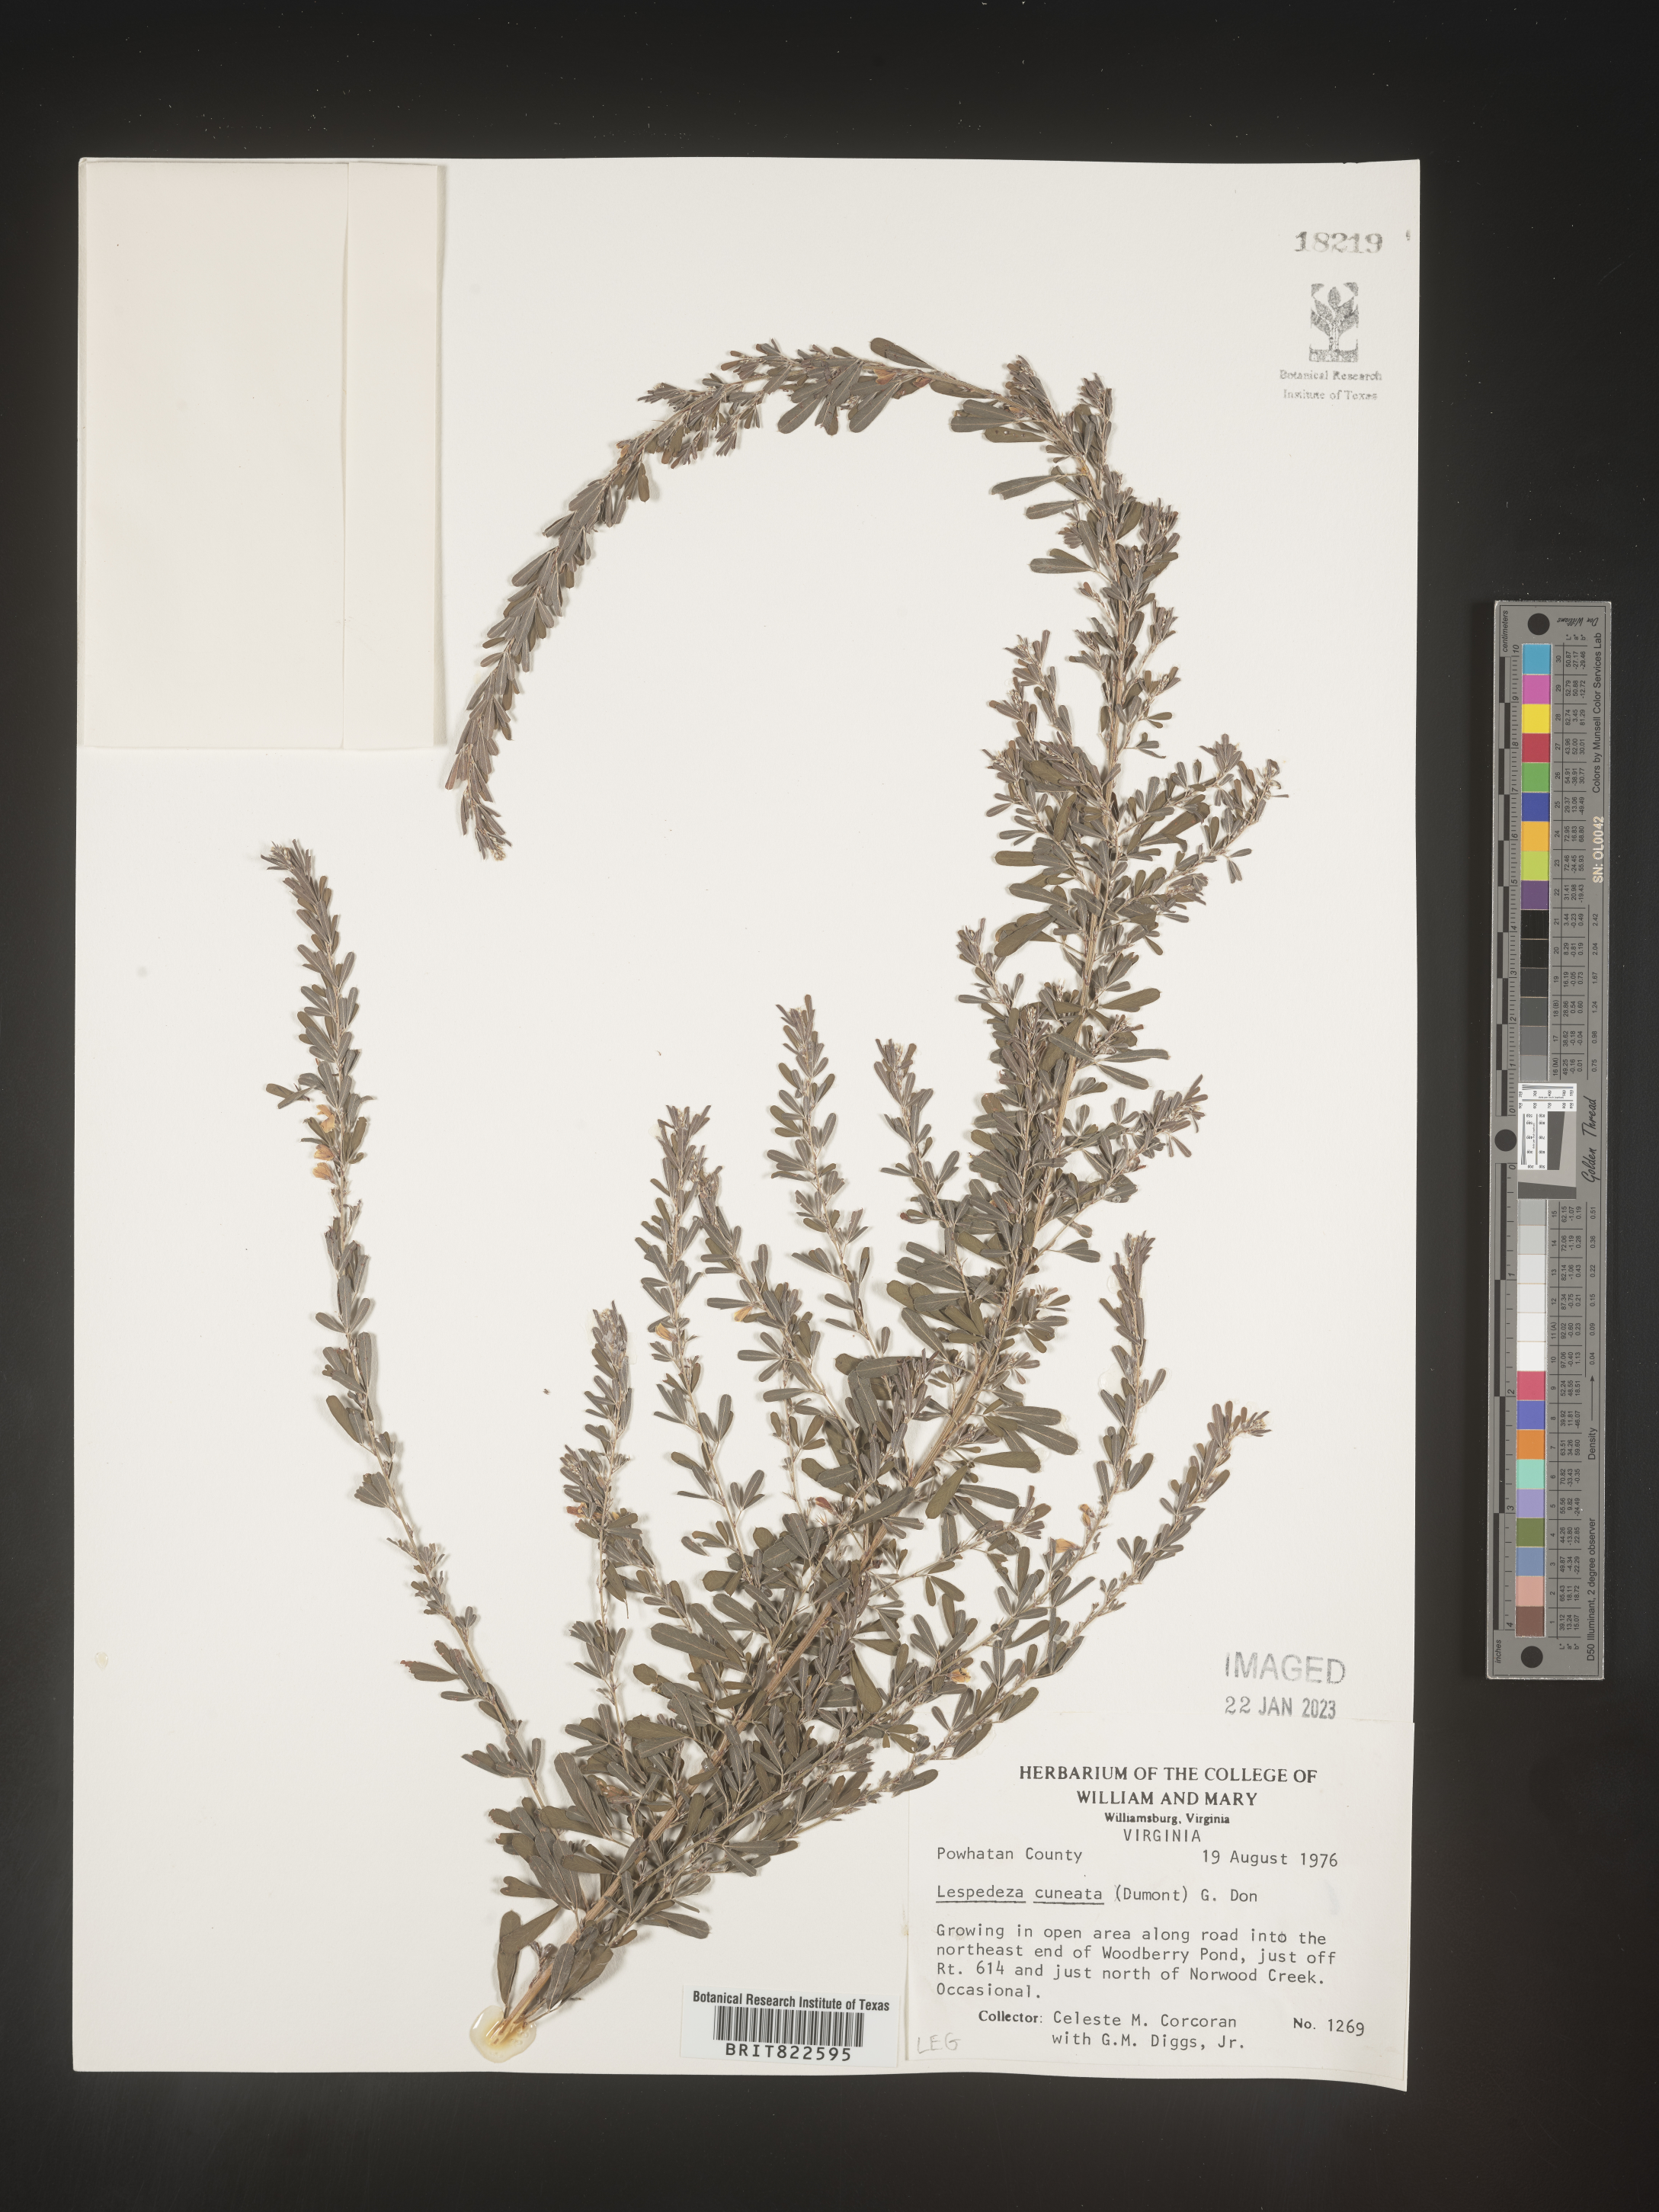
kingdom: Plantae
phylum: Tracheophyta
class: Magnoliopsida
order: Fabales
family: Fabaceae
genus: Lespedeza
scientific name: Lespedeza cuneata
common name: Chinese bush-clover
